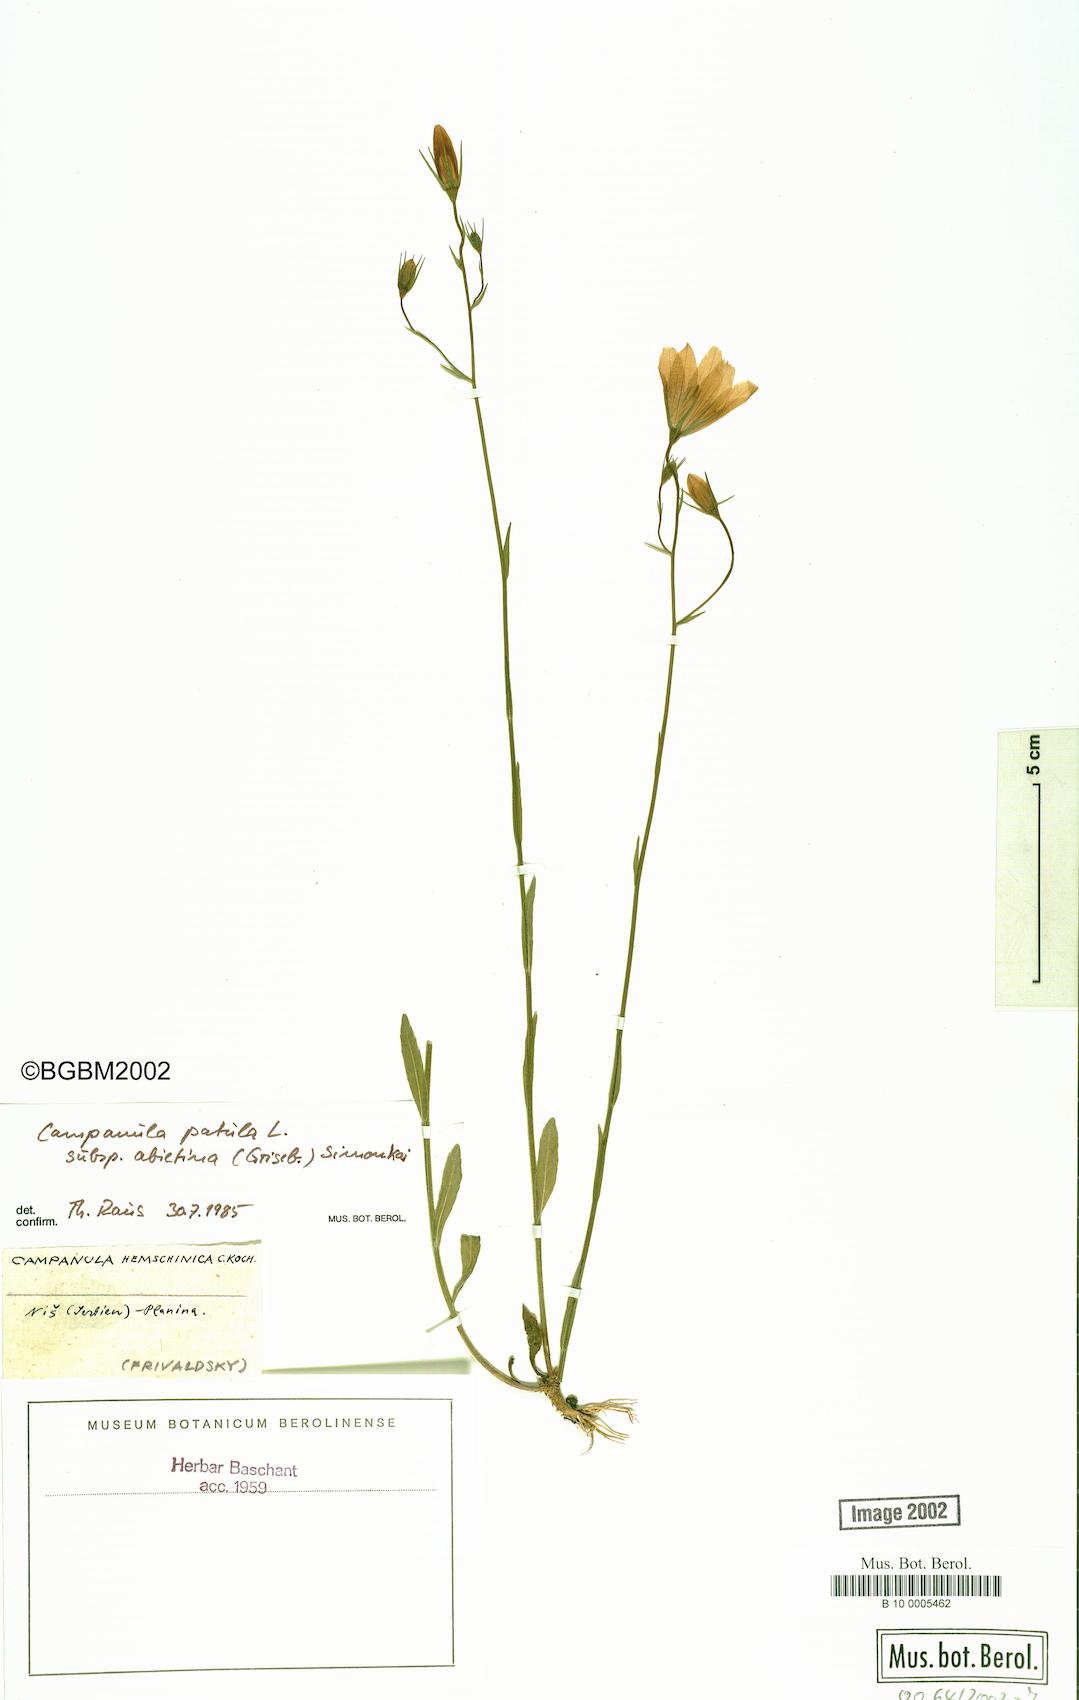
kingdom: Plantae
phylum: Tracheophyta
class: Magnoliopsida
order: Asterales
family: Campanulaceae
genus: Campanula
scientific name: Campanula patula
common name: Spreading bellflower
